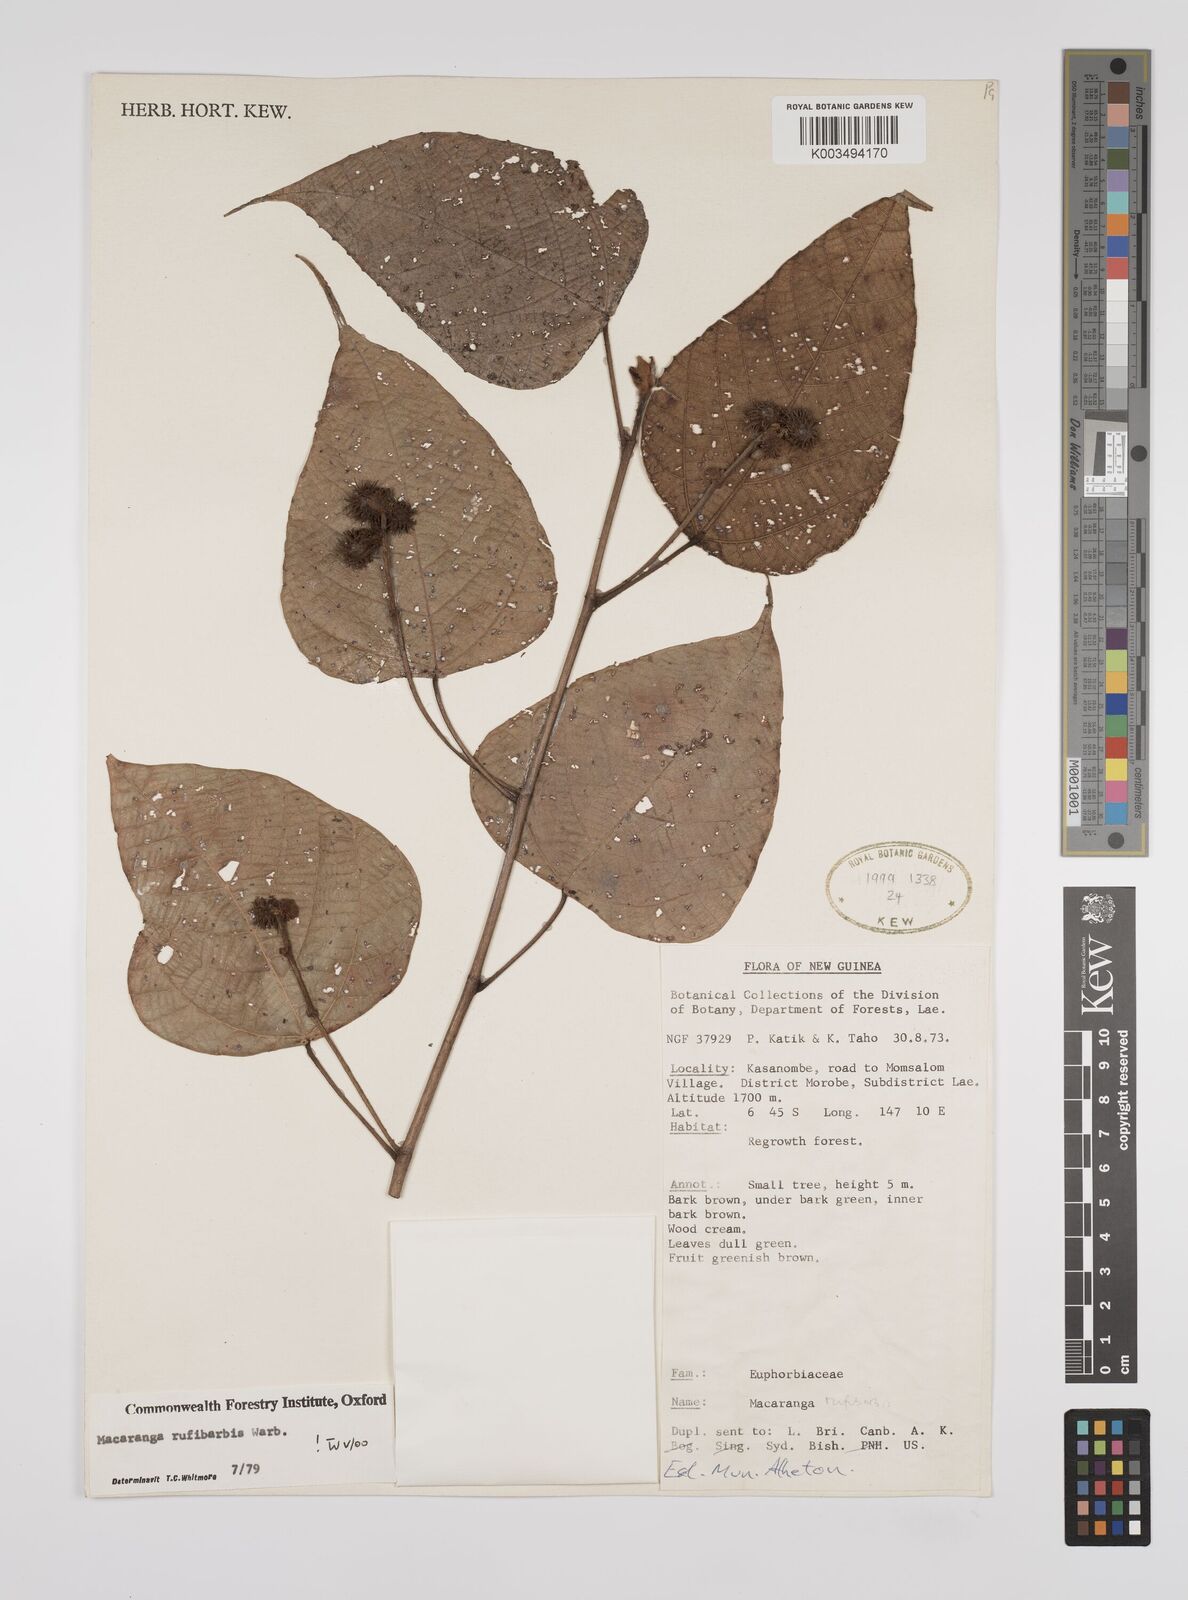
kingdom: Plantae
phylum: Tracheophyta
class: Magnoliopsida
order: Malpighiales
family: Euphorbiaceae
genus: Macaranga
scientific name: Macaranga rufibarbis
